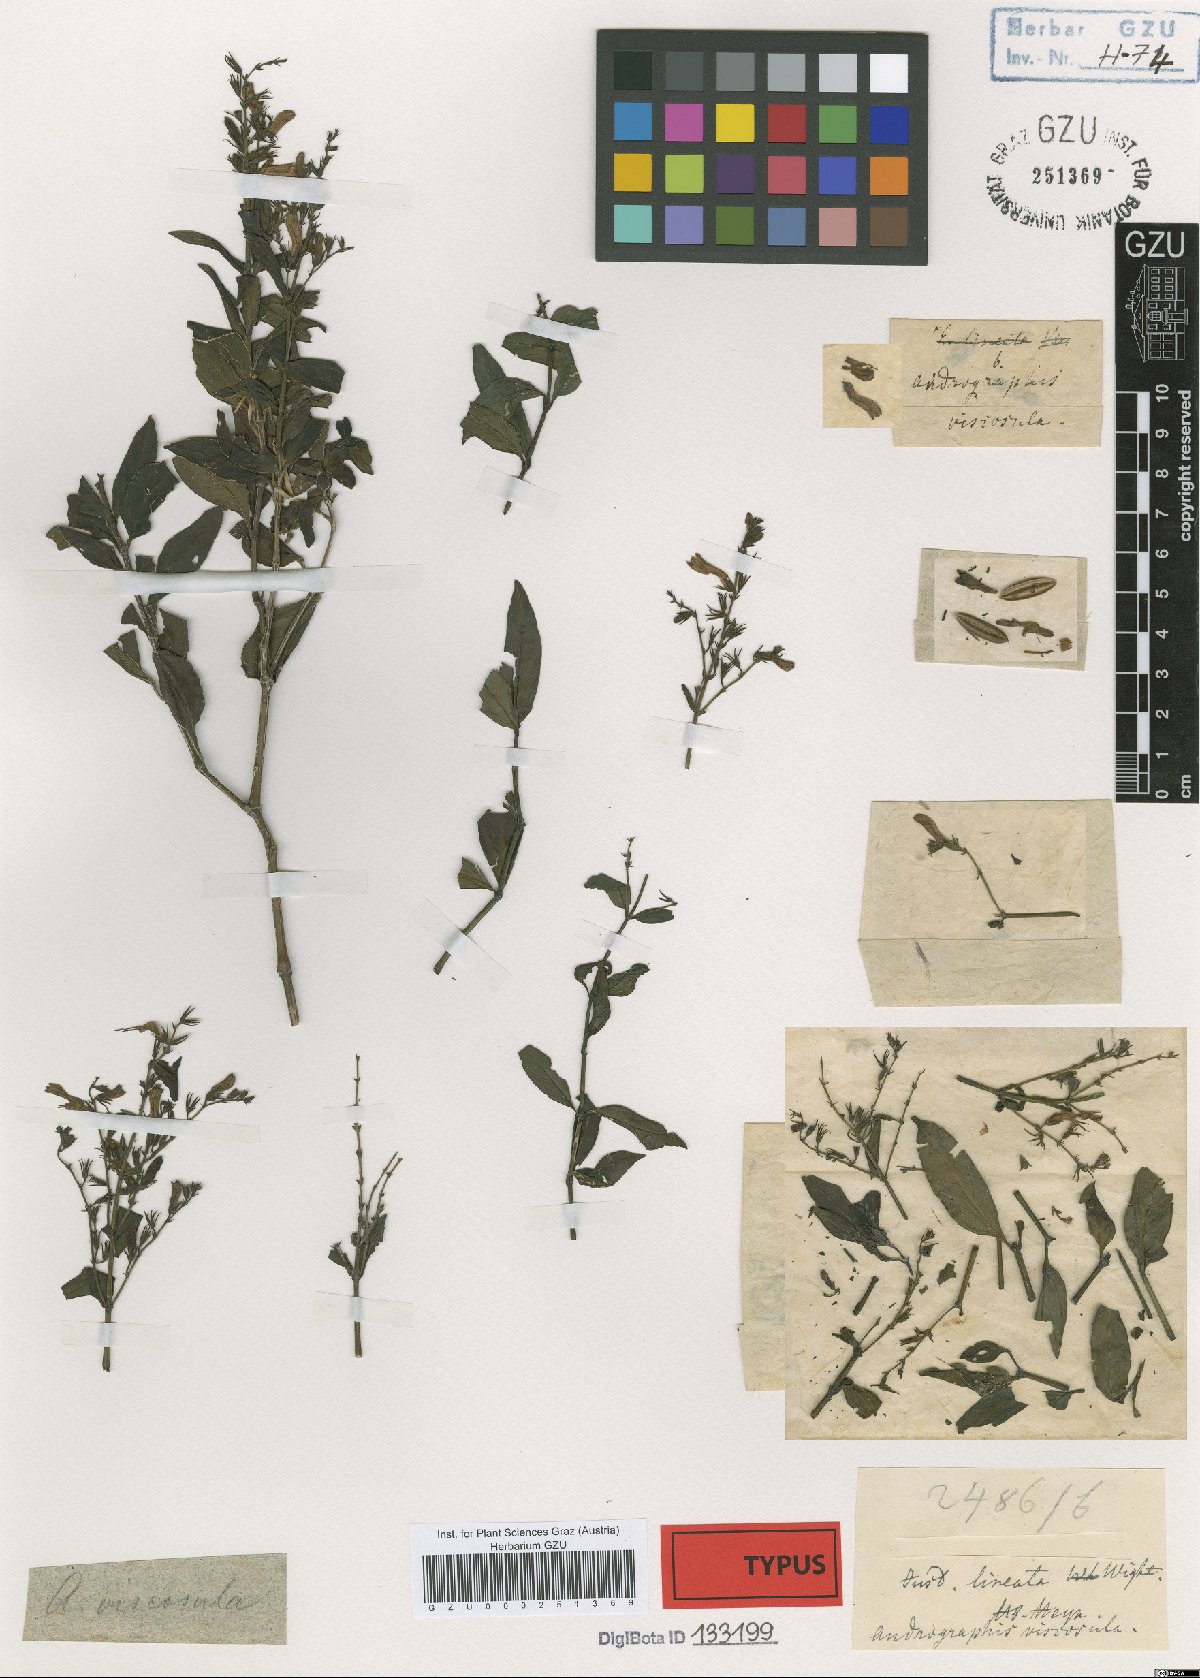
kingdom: Plantae
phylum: Tracheophyta
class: Magnoliopsida
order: Lamiales
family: Acanthaceae
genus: Andrographis
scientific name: Andrographis viscosula
